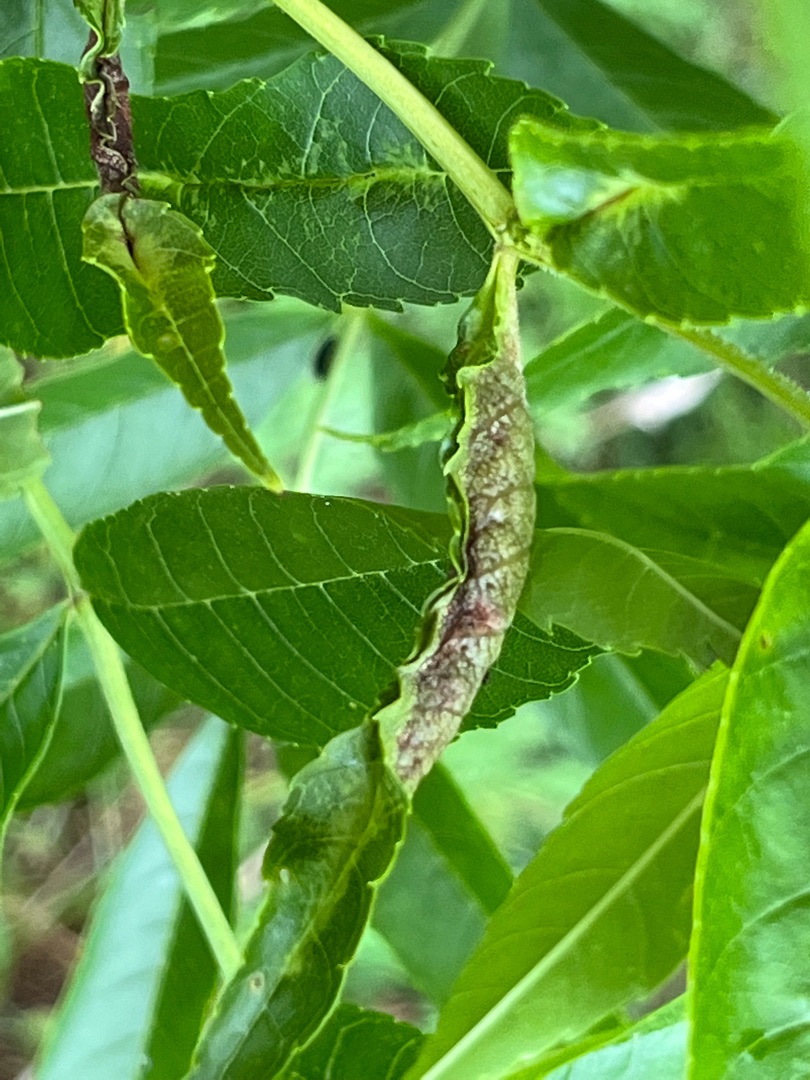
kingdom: Animalia
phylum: Arthropoda
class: Insecta
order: Diptera
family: Cecidomyiidae
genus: Dasineura
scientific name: Dasineura acrophila
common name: Hvid askebladgalmyg
